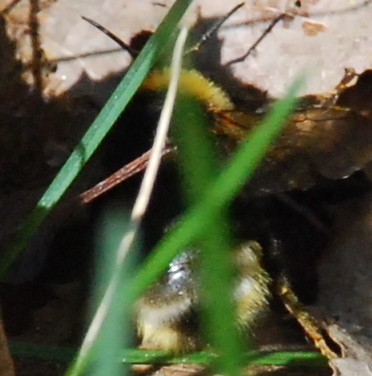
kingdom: Animalia
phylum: Arthropoda
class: Insecta
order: Hymenoptera
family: Apidae
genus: Bombus
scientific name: Bombus bohemicus
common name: Gypsy cuckoo bee
